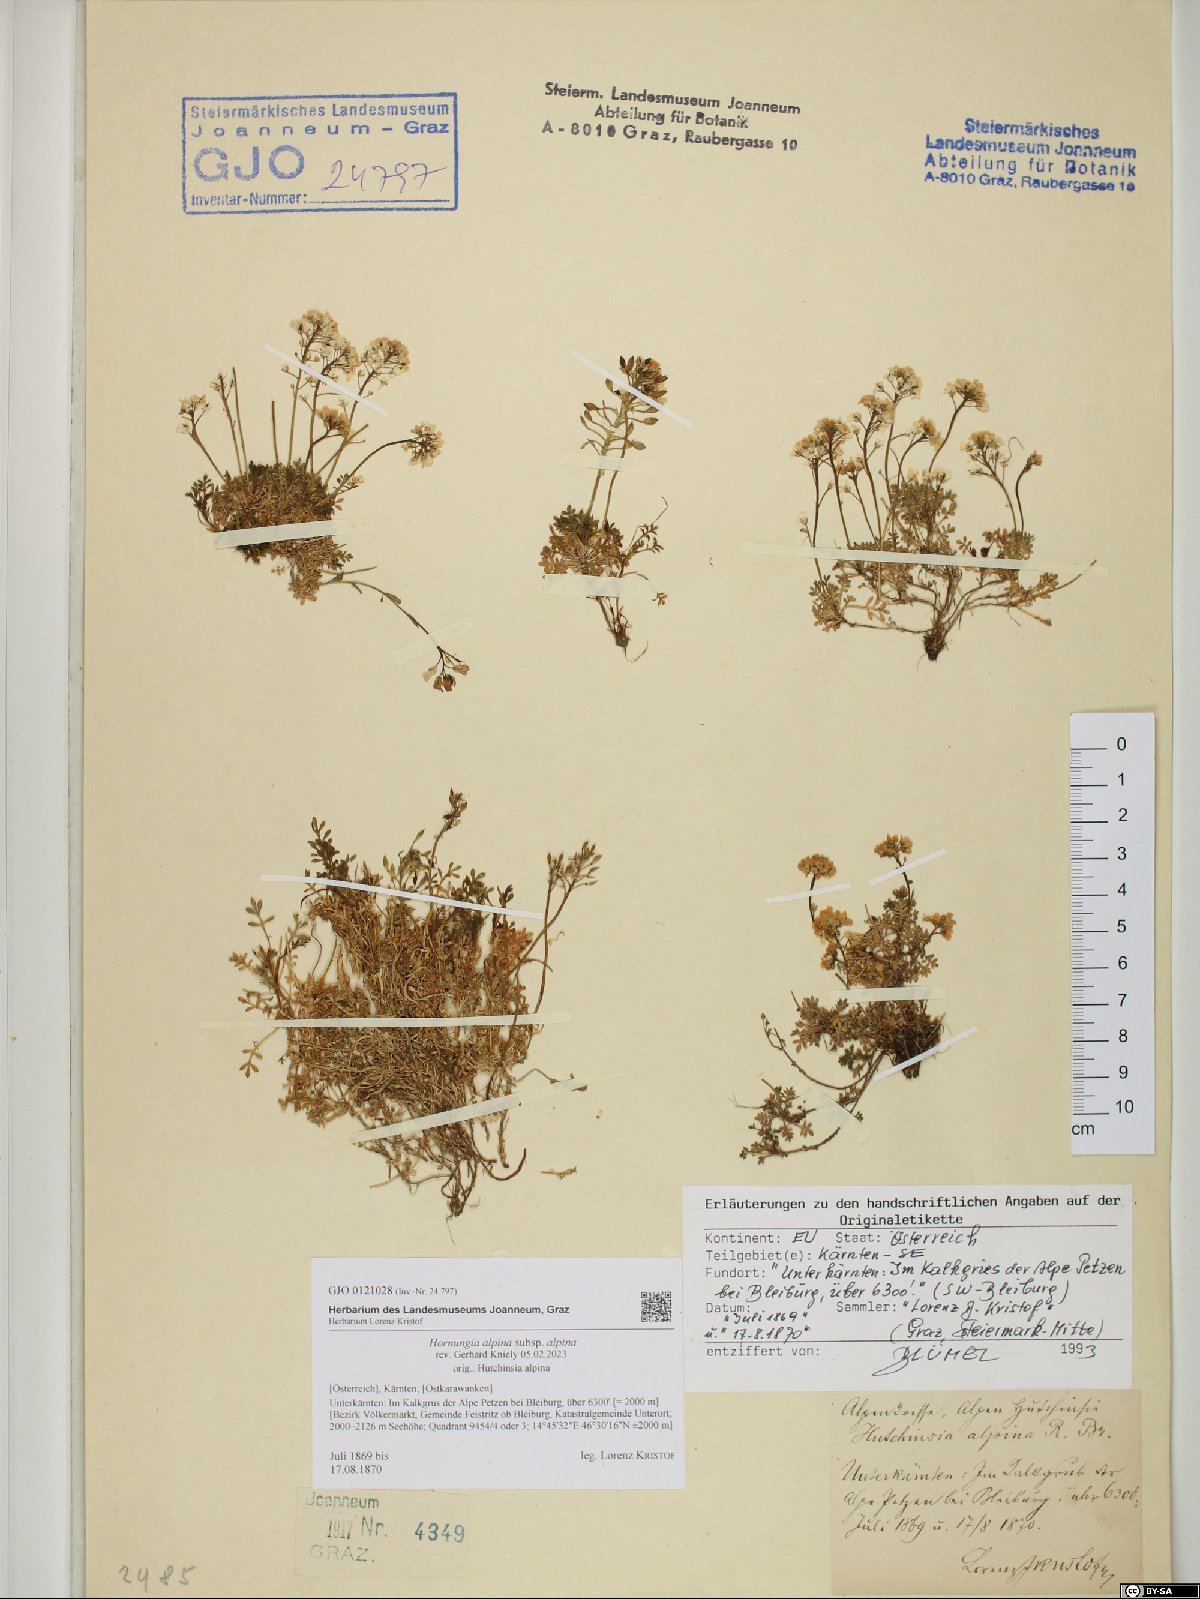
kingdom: Plantae
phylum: Tracheophyta
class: Magnoliopsida
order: Brassicales
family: Brassicaceae
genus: Hornungia
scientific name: Hornungia alpina
